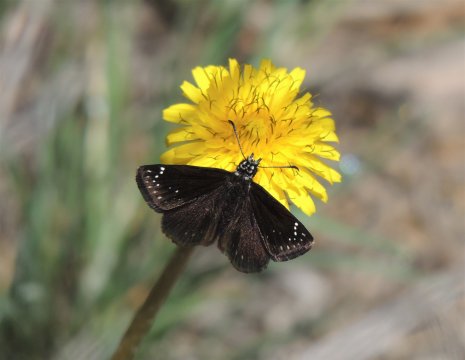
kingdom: Animalia
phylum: Arthropoda
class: Insecta
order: Lepidoptera
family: Hesperiidae
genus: Pholisora
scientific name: Pholisora catullus
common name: Common Sootywing
